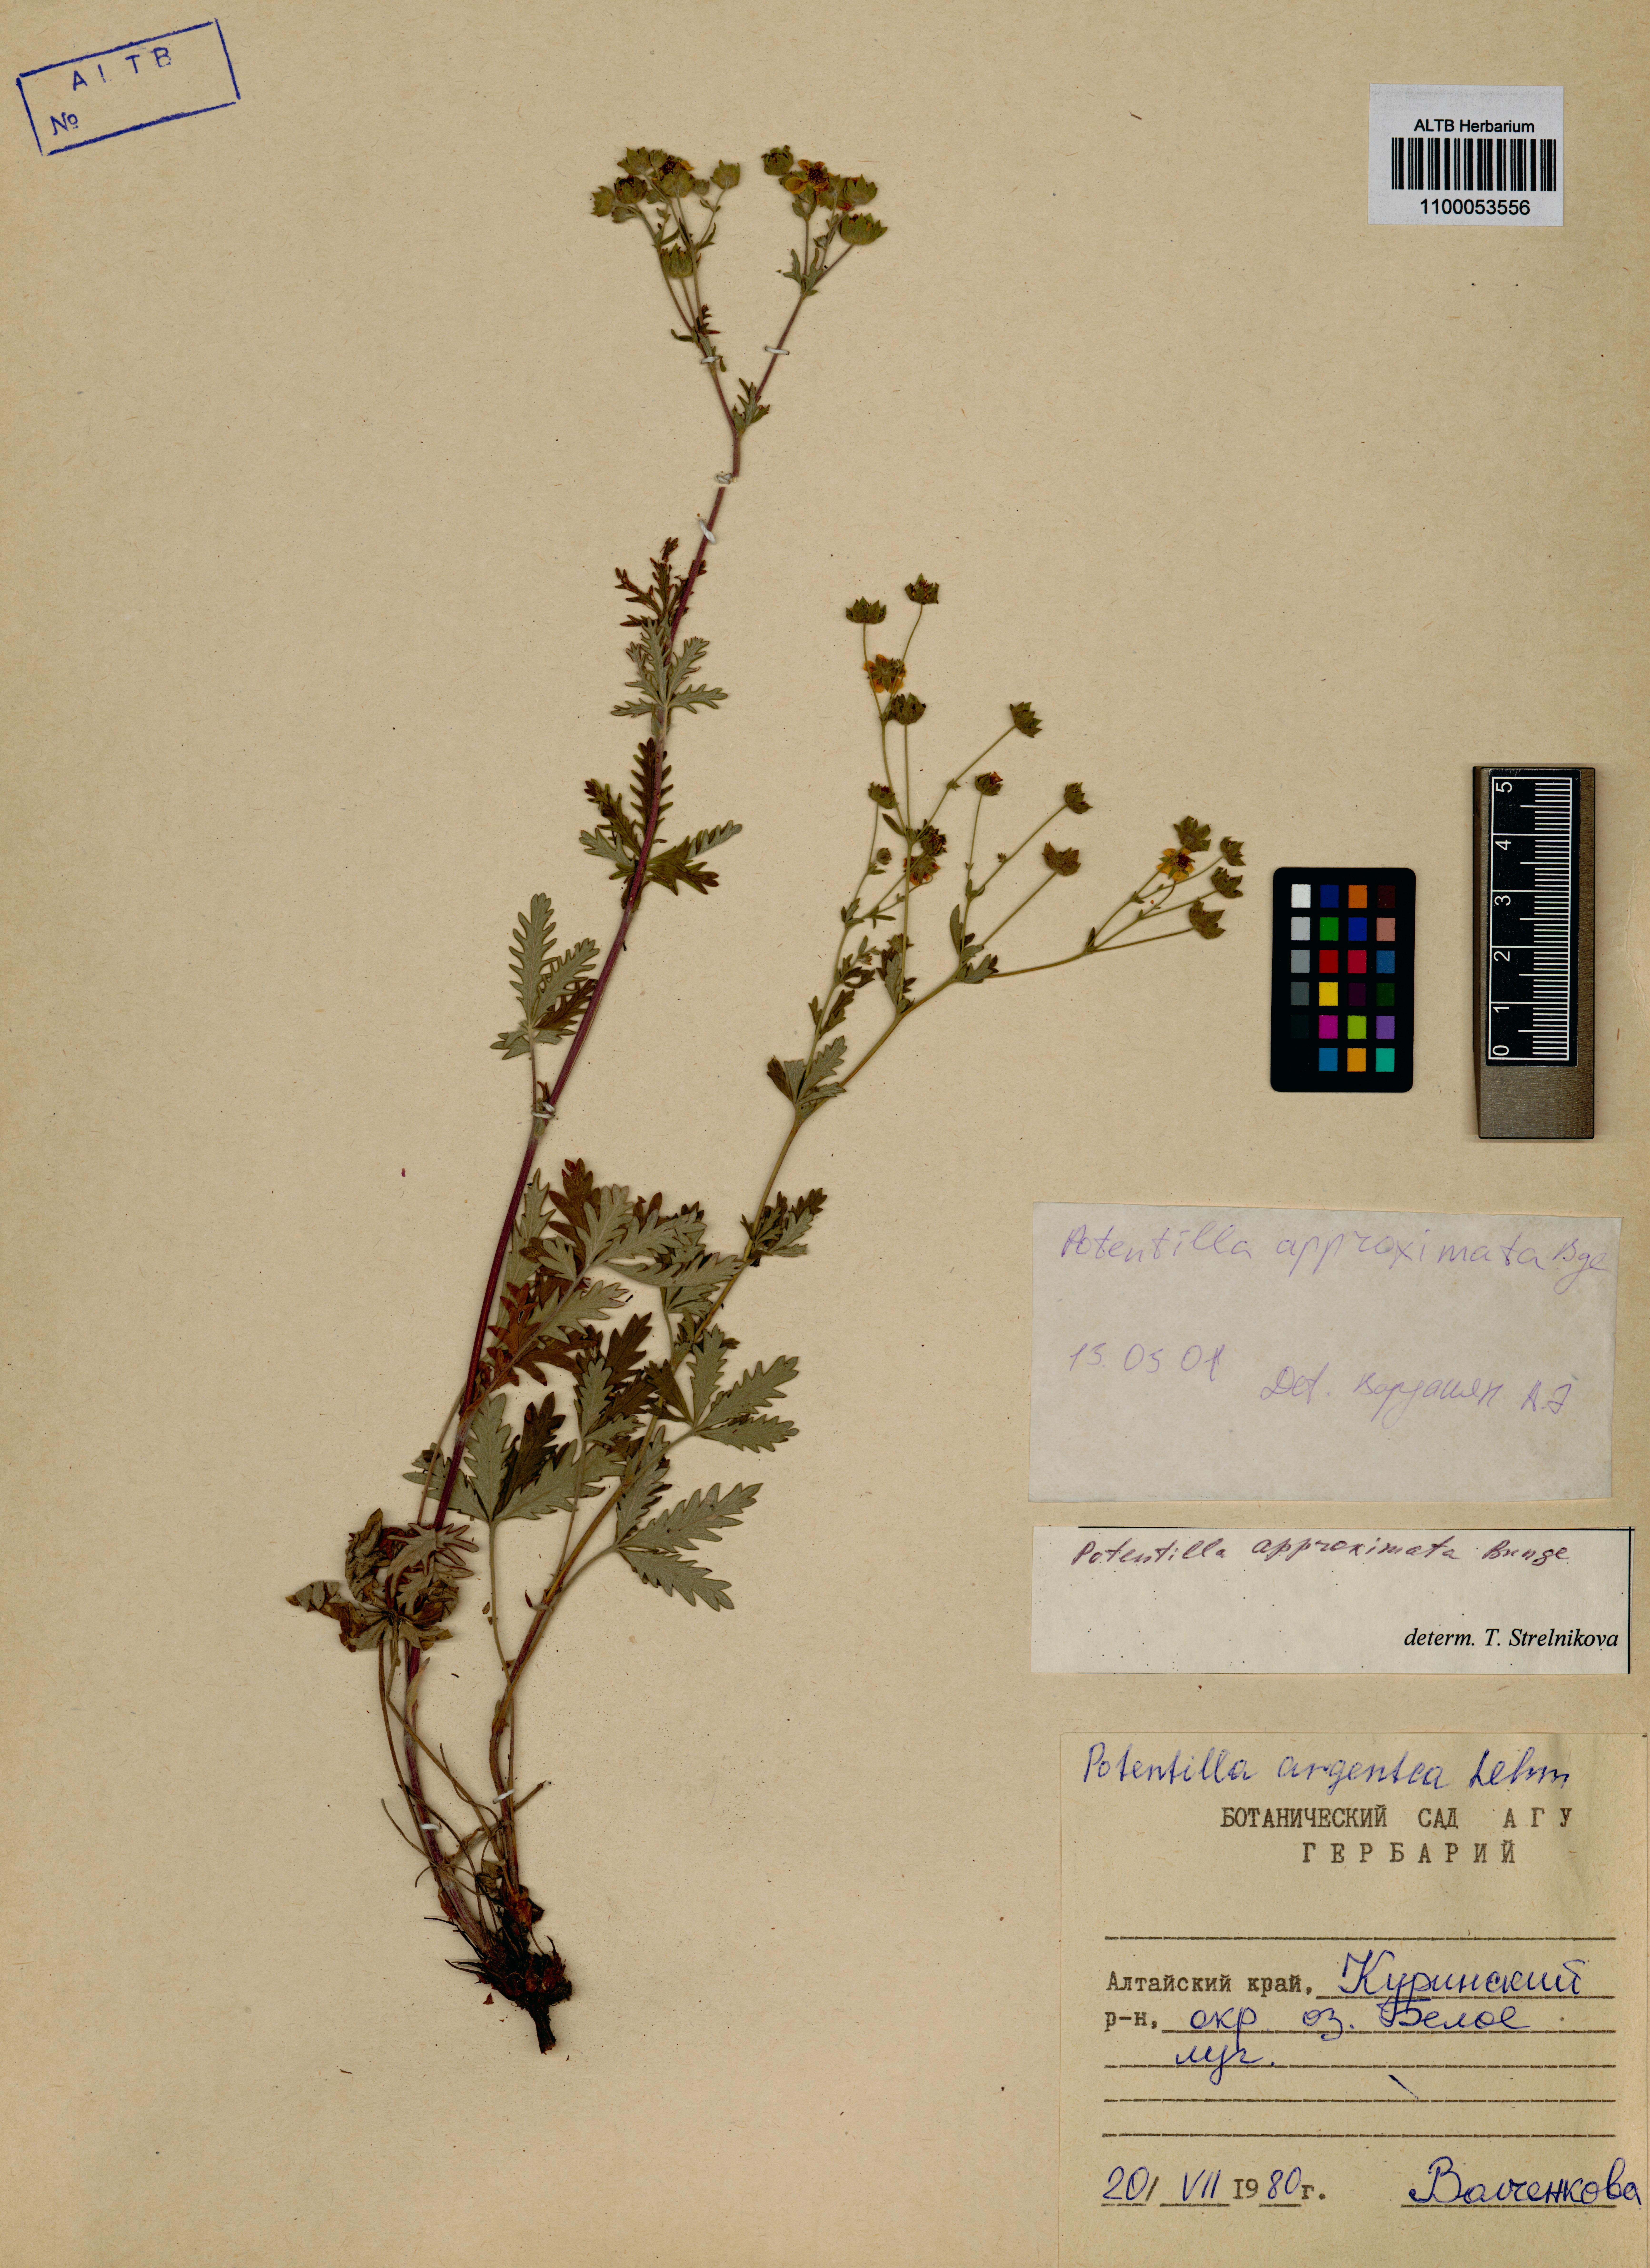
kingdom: Plantae
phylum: Tracheophyta
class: Magnoliopsida
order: Rosales
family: Rosaceae
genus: Potentilla
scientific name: Potentilla conferta
